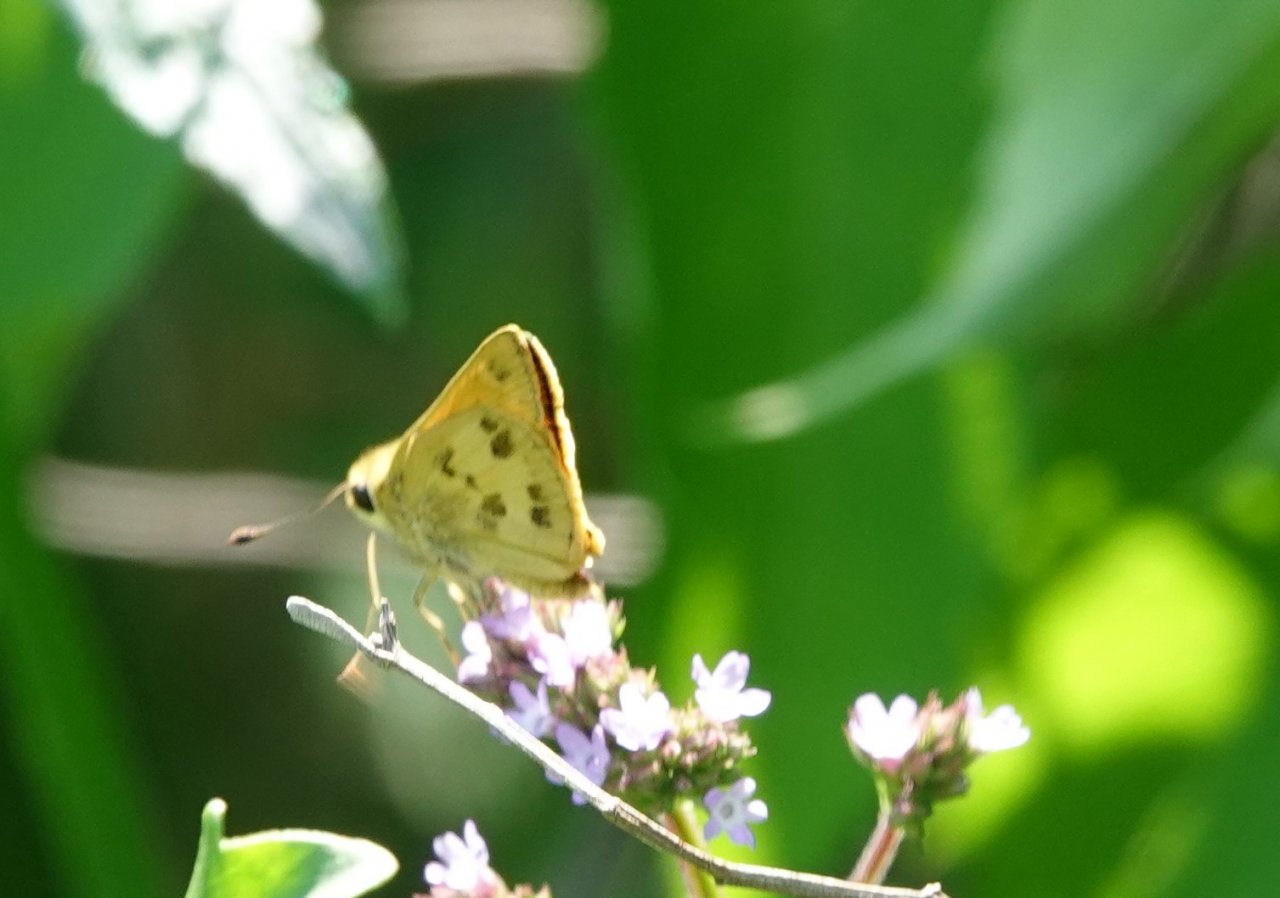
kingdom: Animalia
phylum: Arthropoda
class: Insecta
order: Lepidoptera
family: Hesperiidae
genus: Polites
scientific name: Polites vibex
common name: Whirlabout
